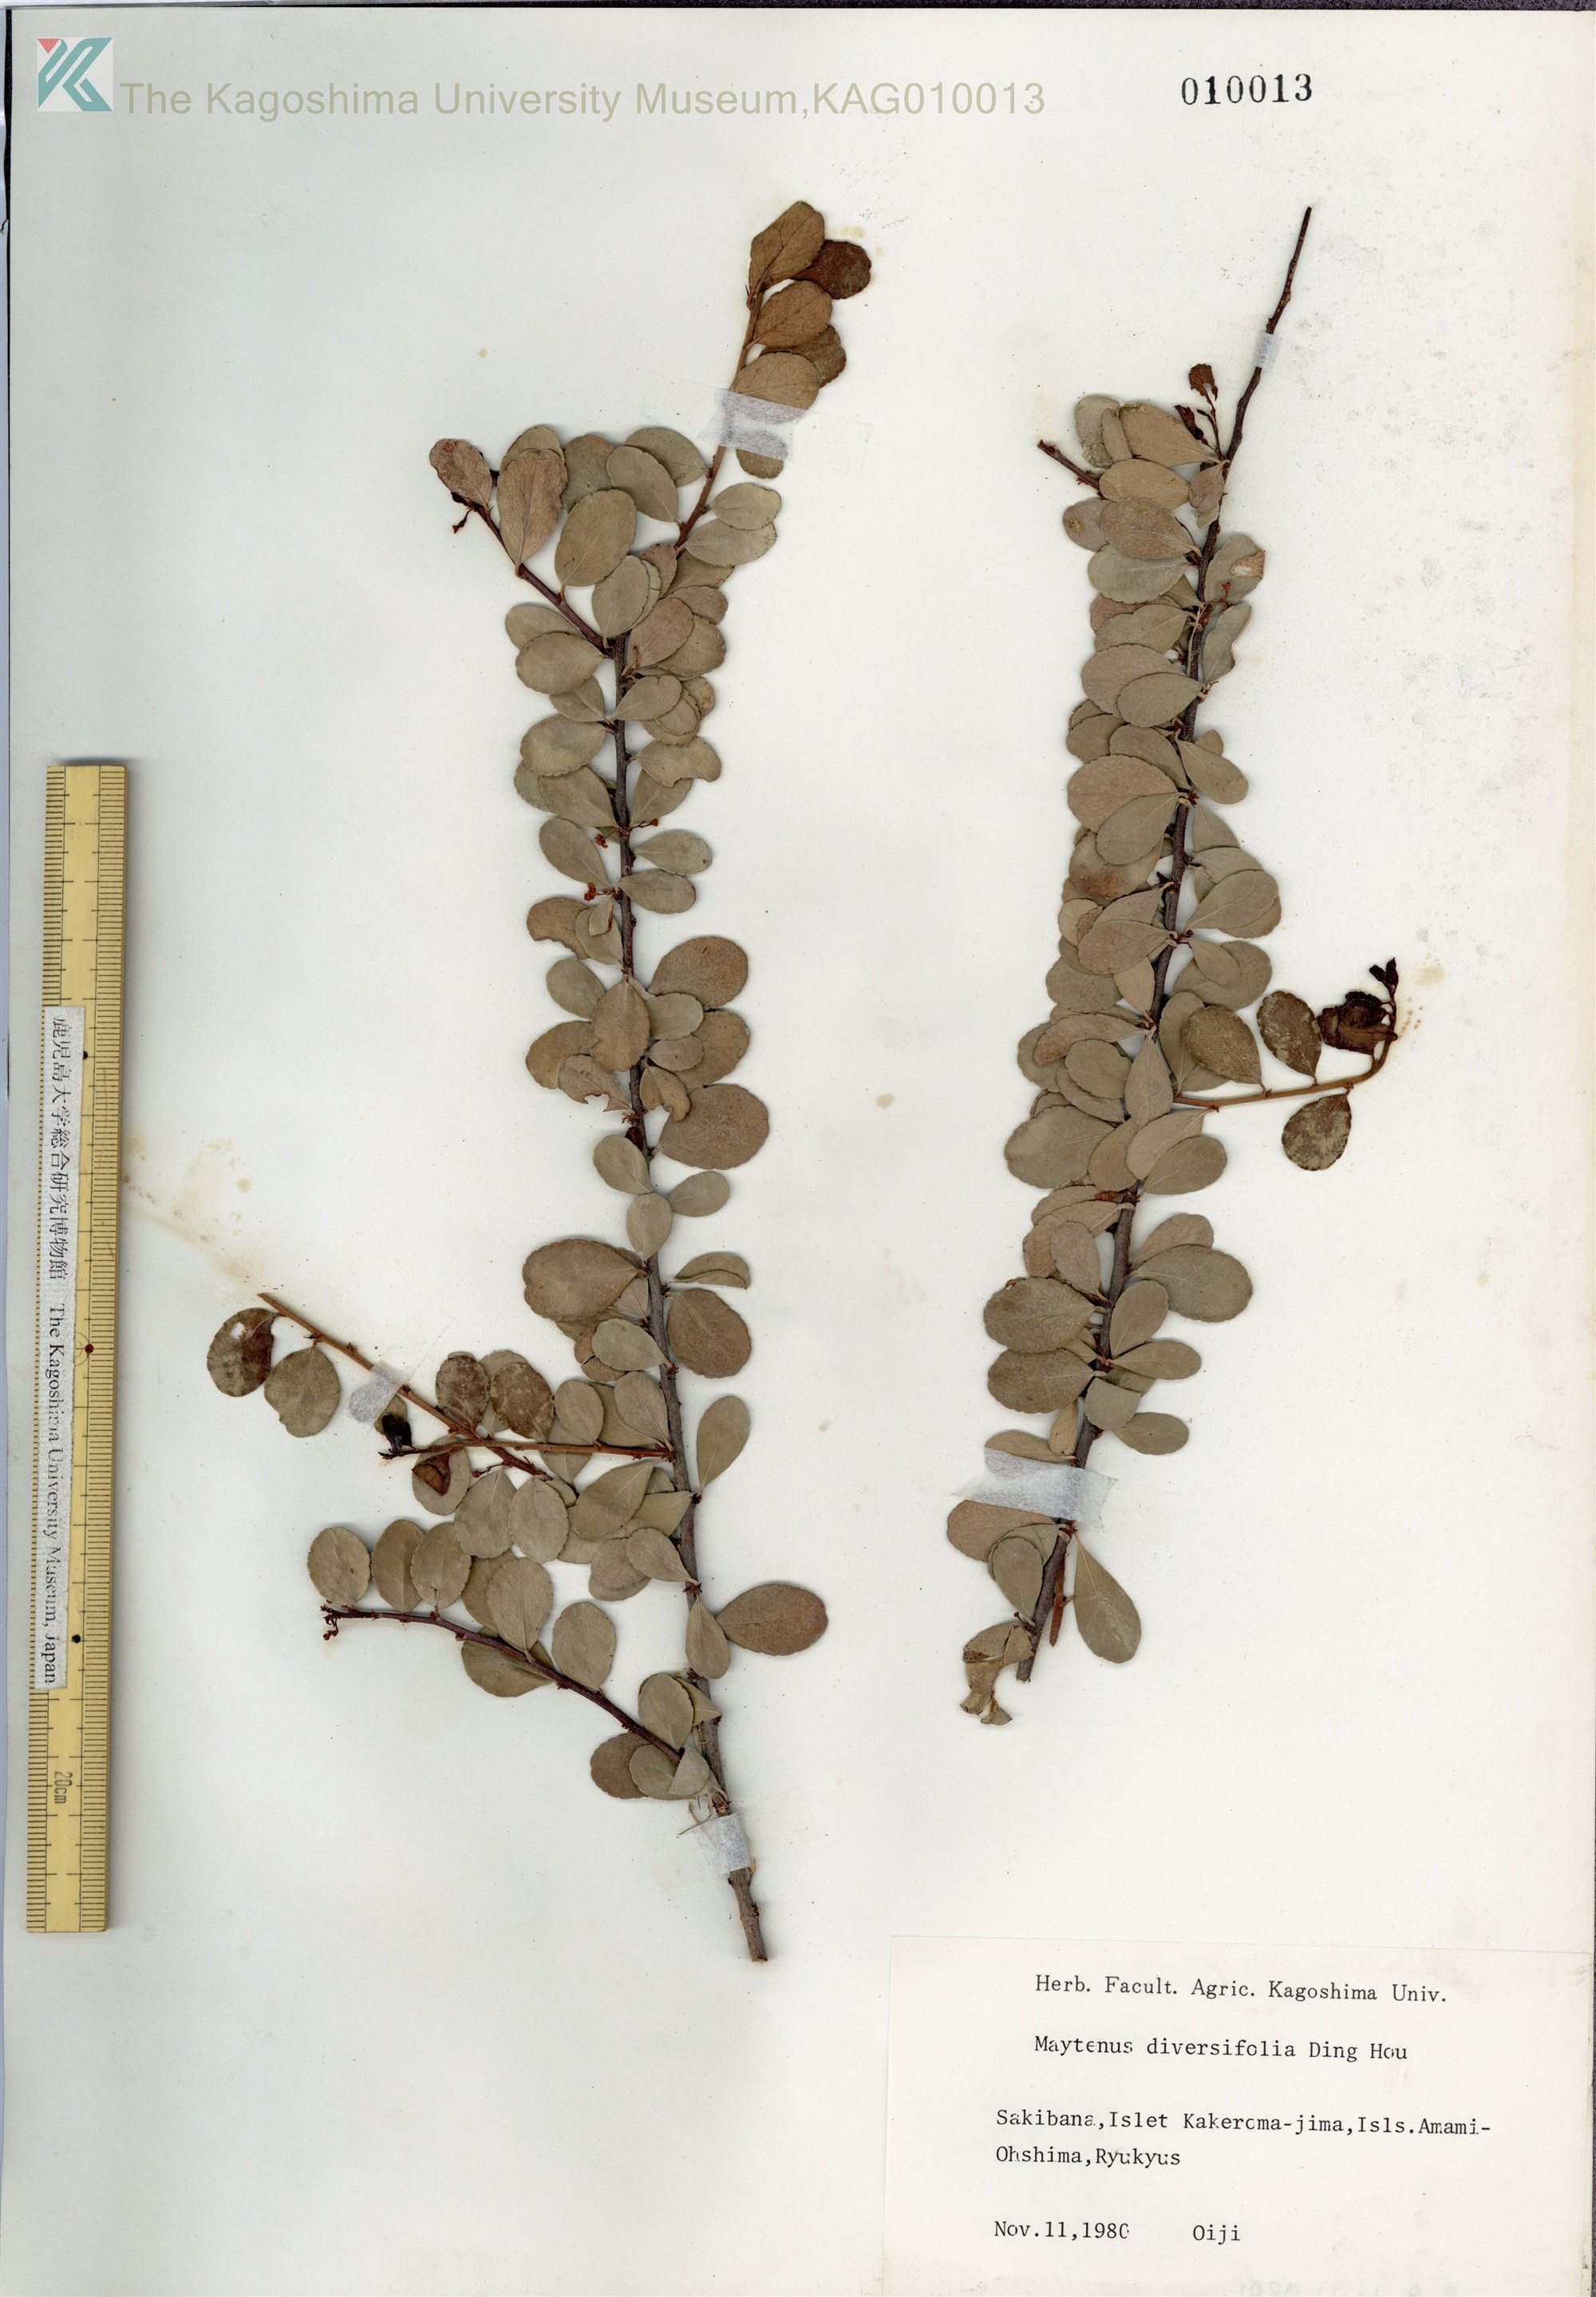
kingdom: Plantae
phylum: Tracheophyta
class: Magnoliopsida
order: Celastrales
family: Celastraceae
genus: Gymnosporia
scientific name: Gymnosporia diversifolia
